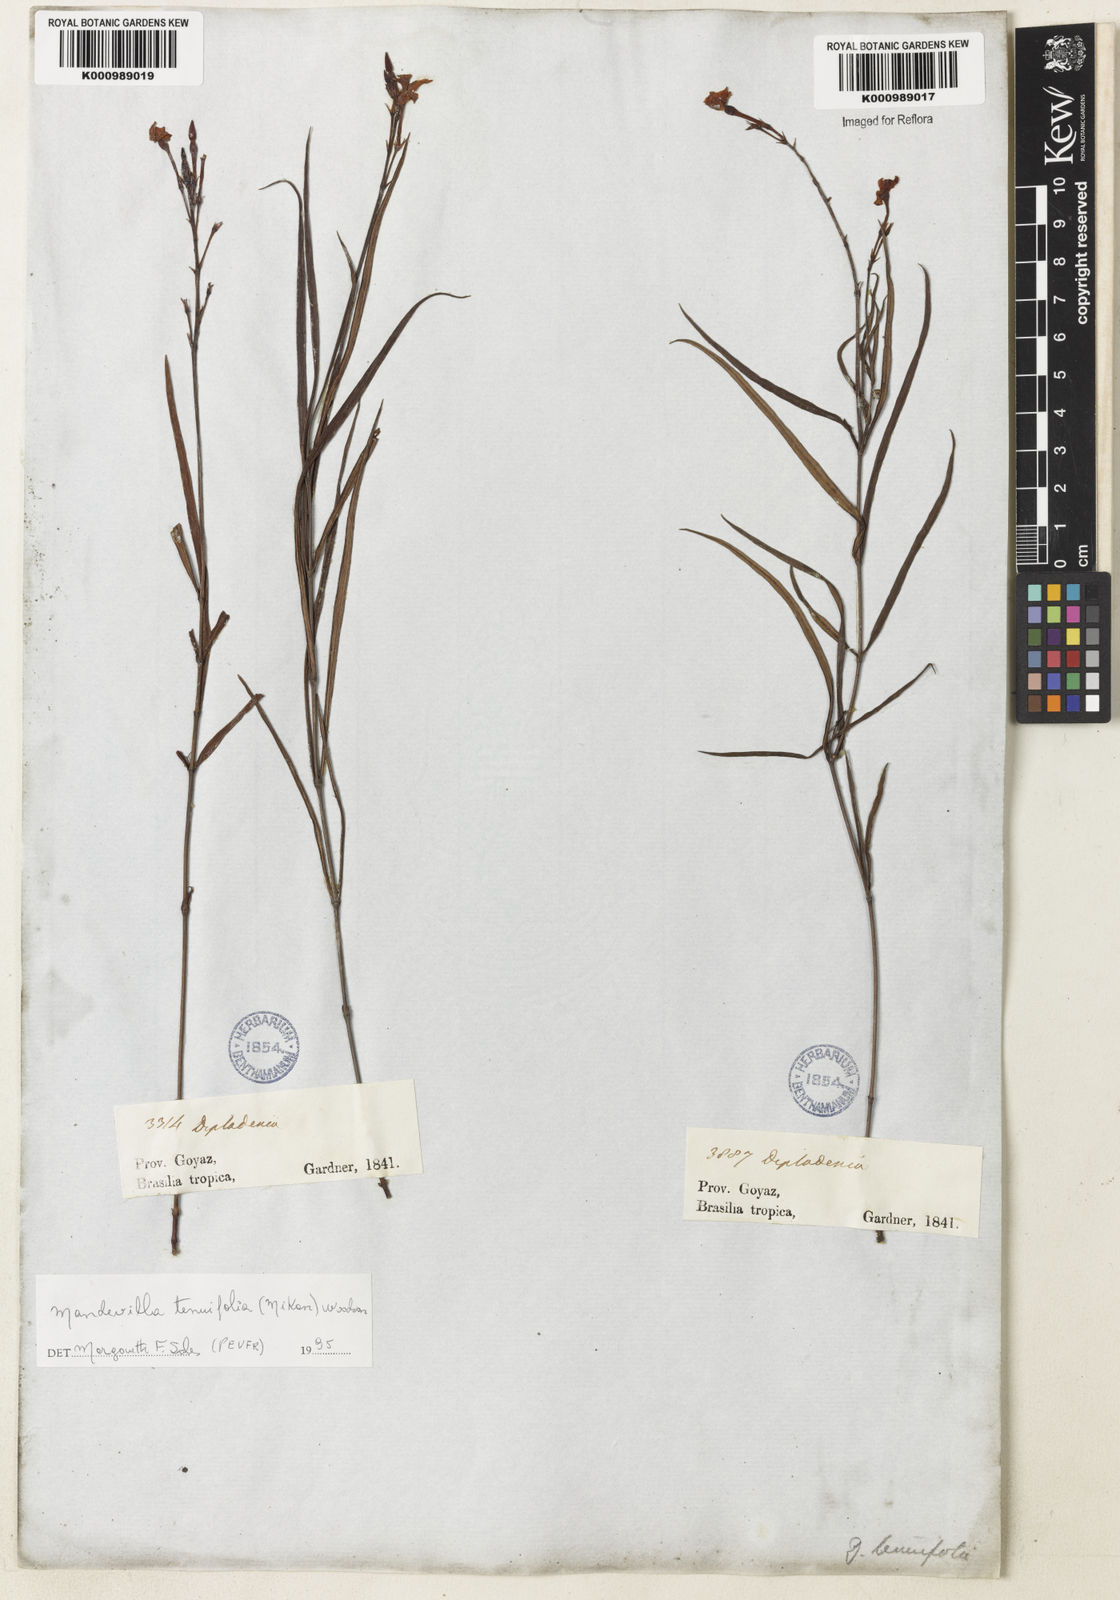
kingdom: Plantae
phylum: Tracheophyta
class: Magnoliopsida
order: Gentianales
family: Apocynaceae
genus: Mandevilla
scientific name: Mandevilla tenuifolia
